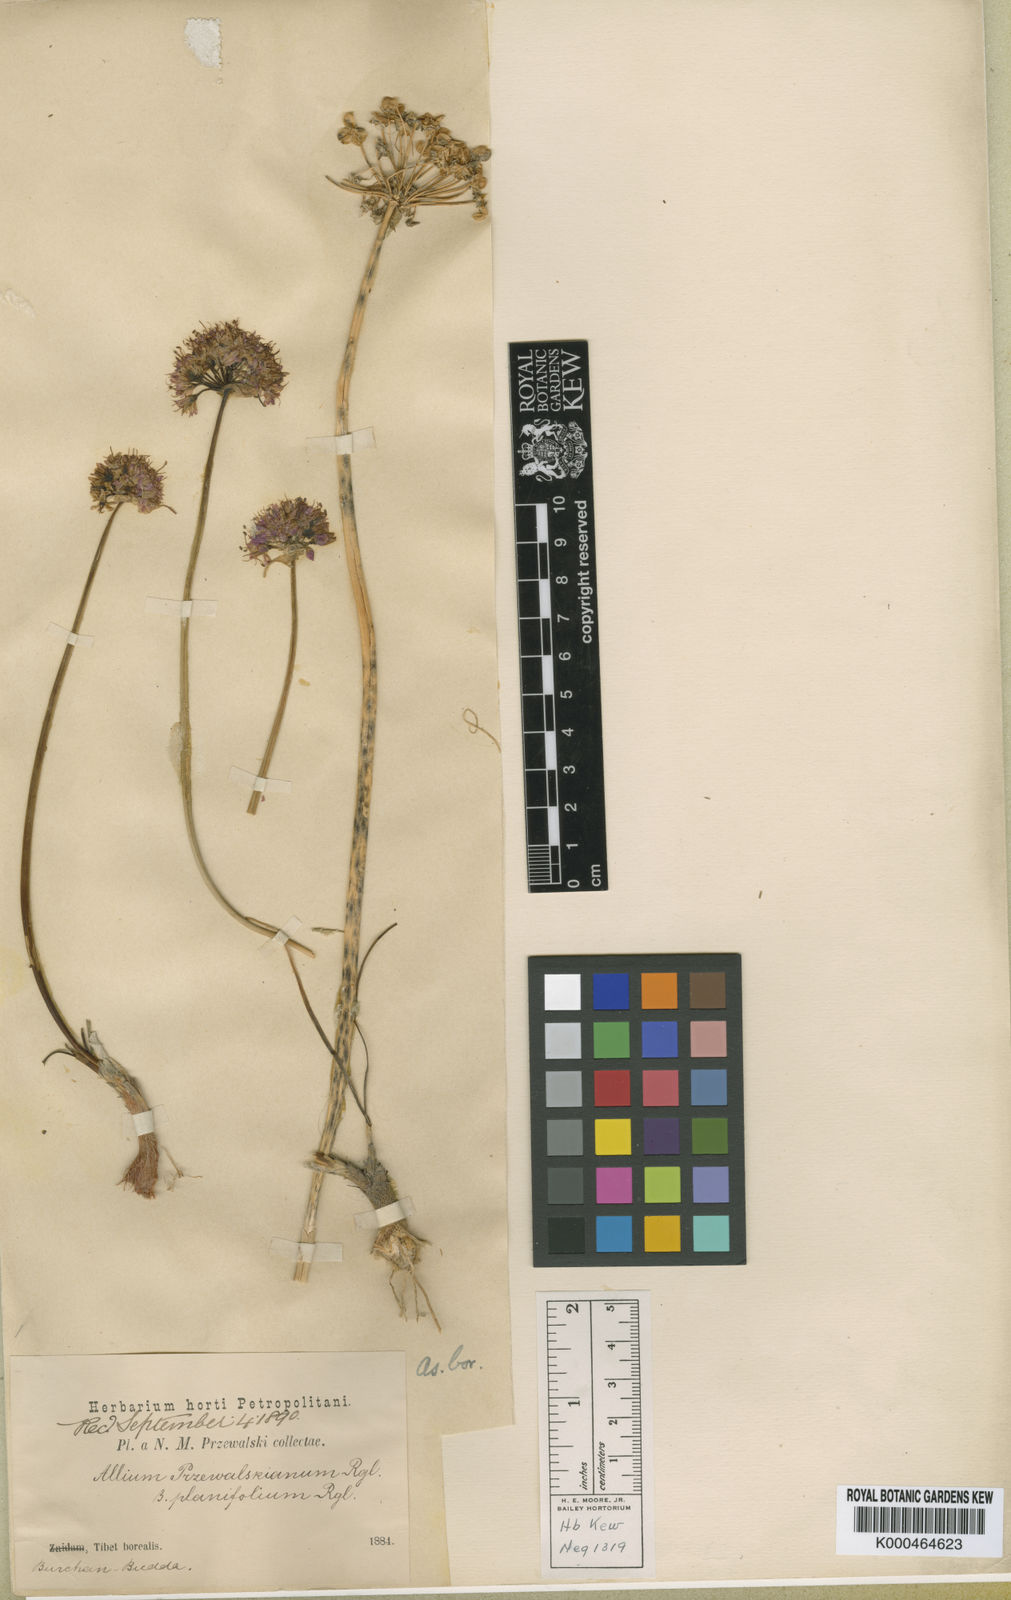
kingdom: Plantae
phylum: Tracheophyta
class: Liliopsida
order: Asparagales
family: Amaryllidaceae
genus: Allium
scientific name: Allium przewalskianum
